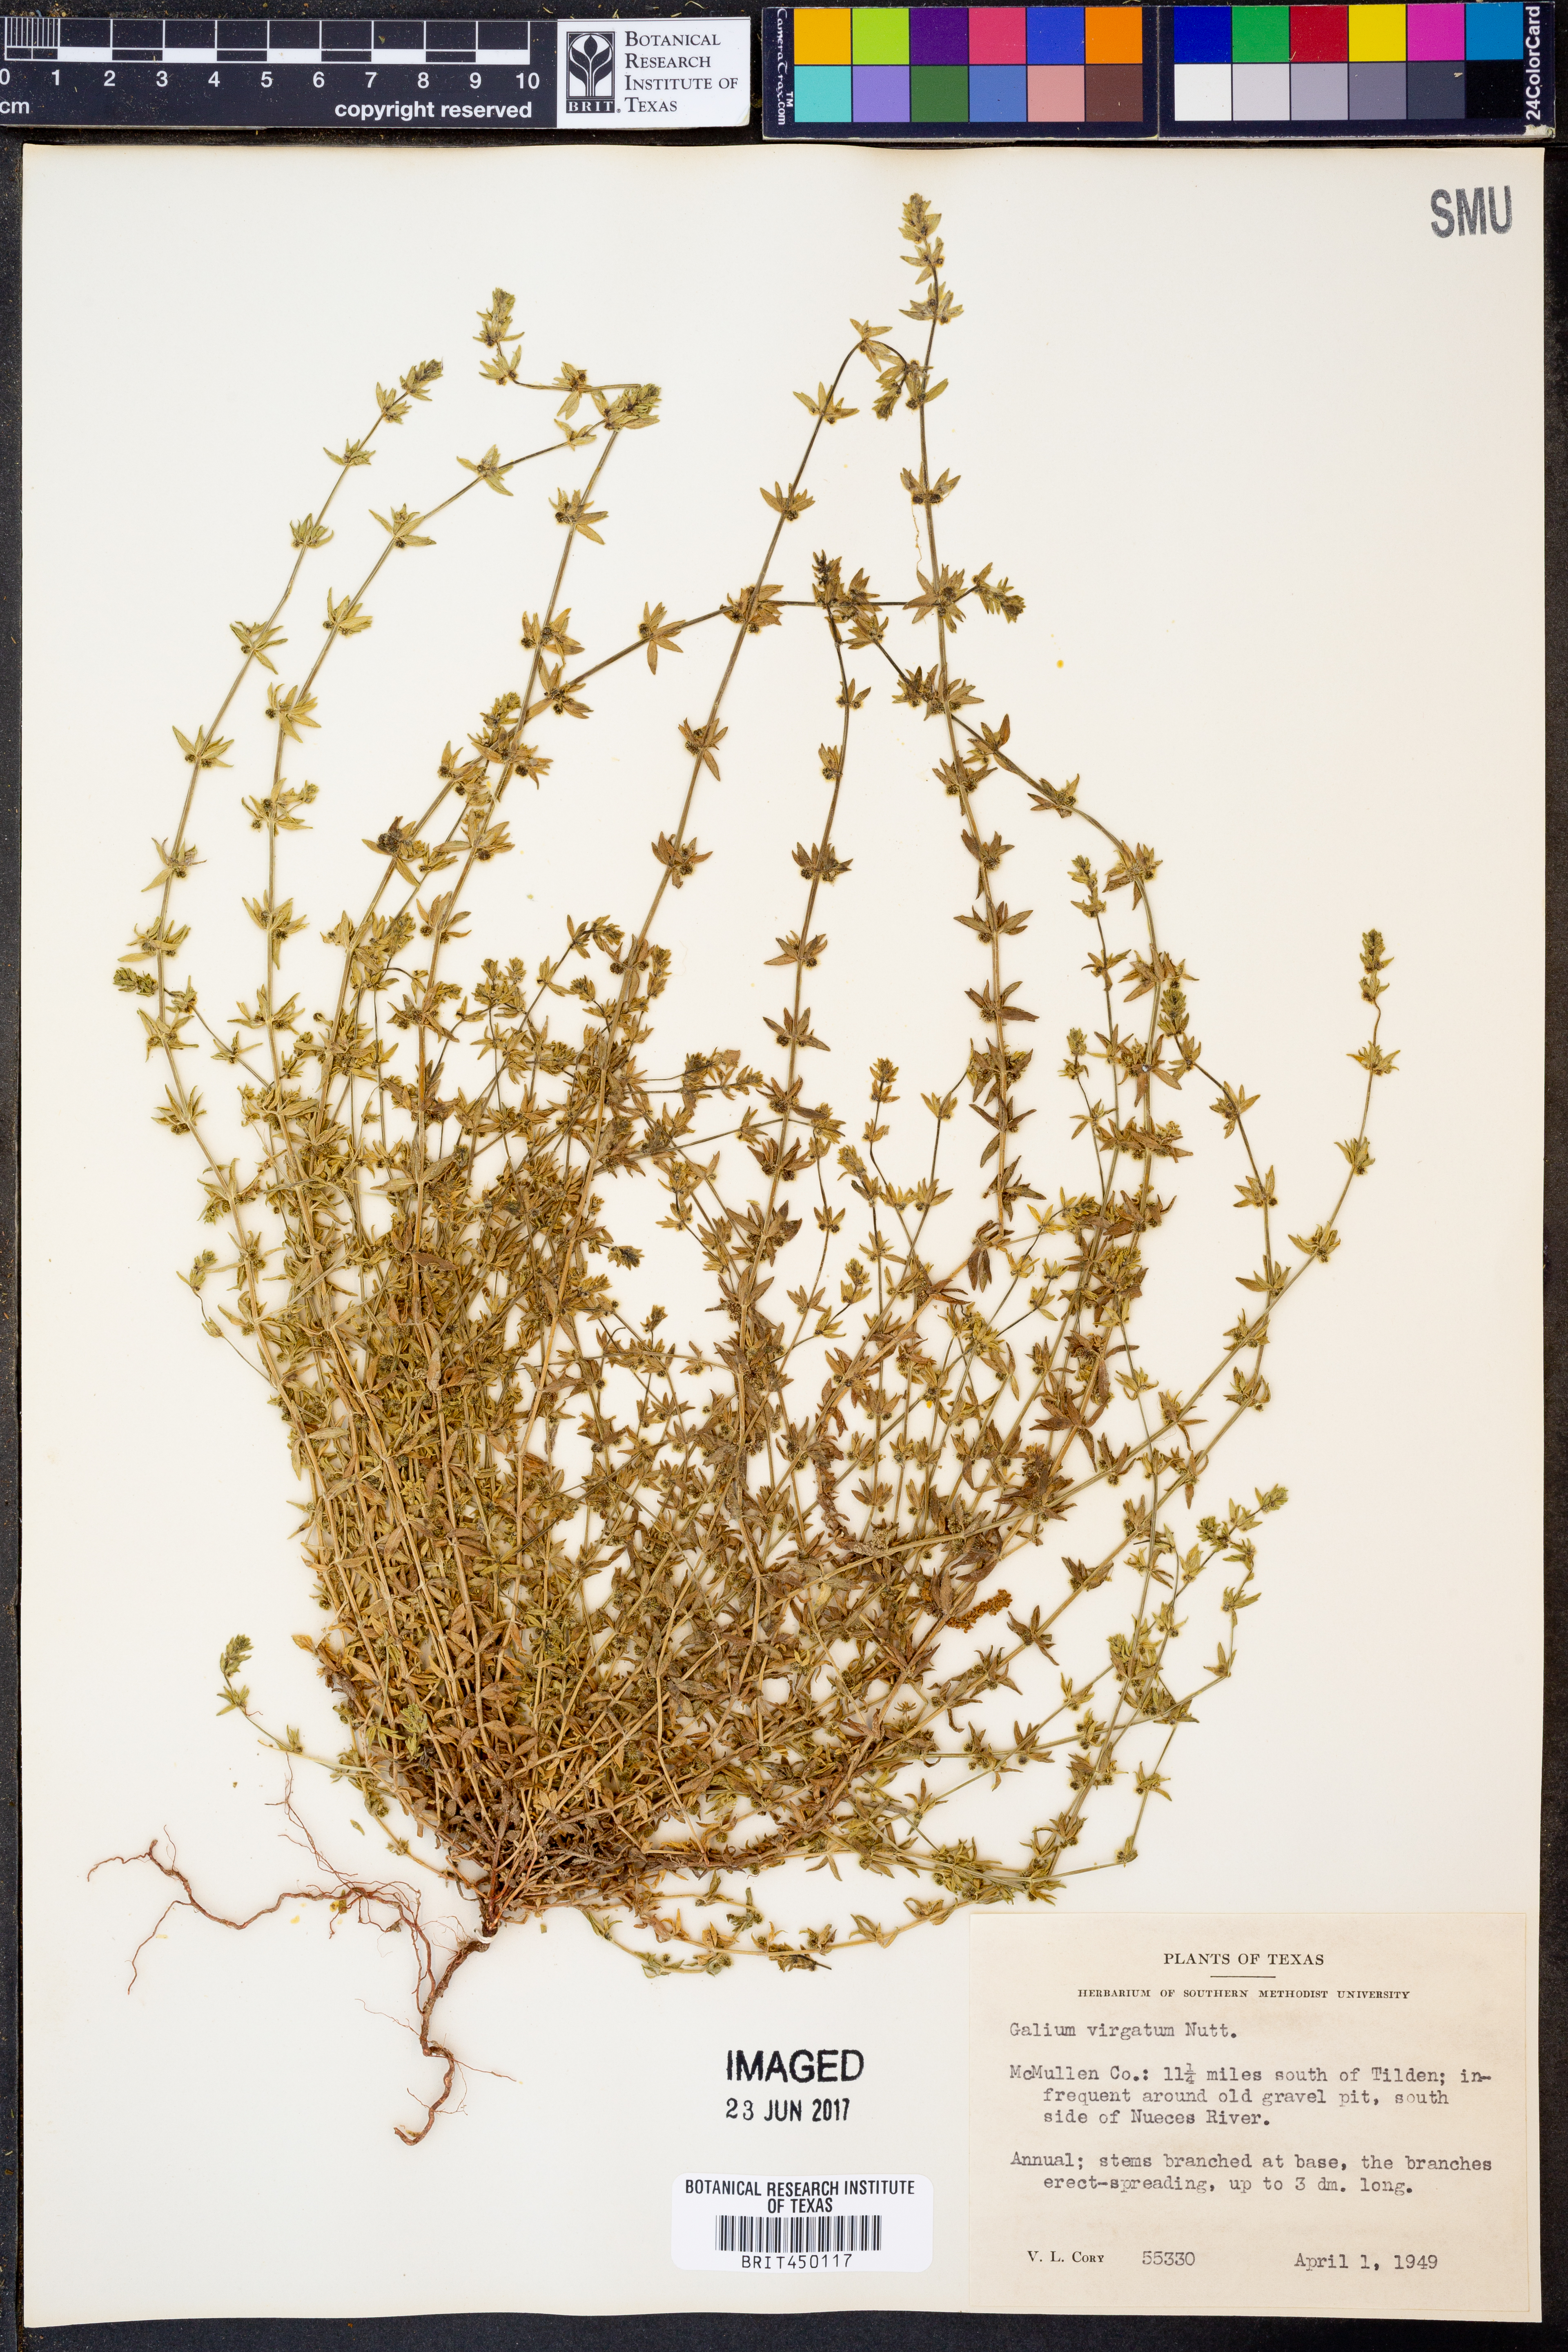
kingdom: Plantae
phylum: Tracheophyta
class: Magnoliopsida
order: Gentianales
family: Rubiaceae
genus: Galium
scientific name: Galium virgatum
